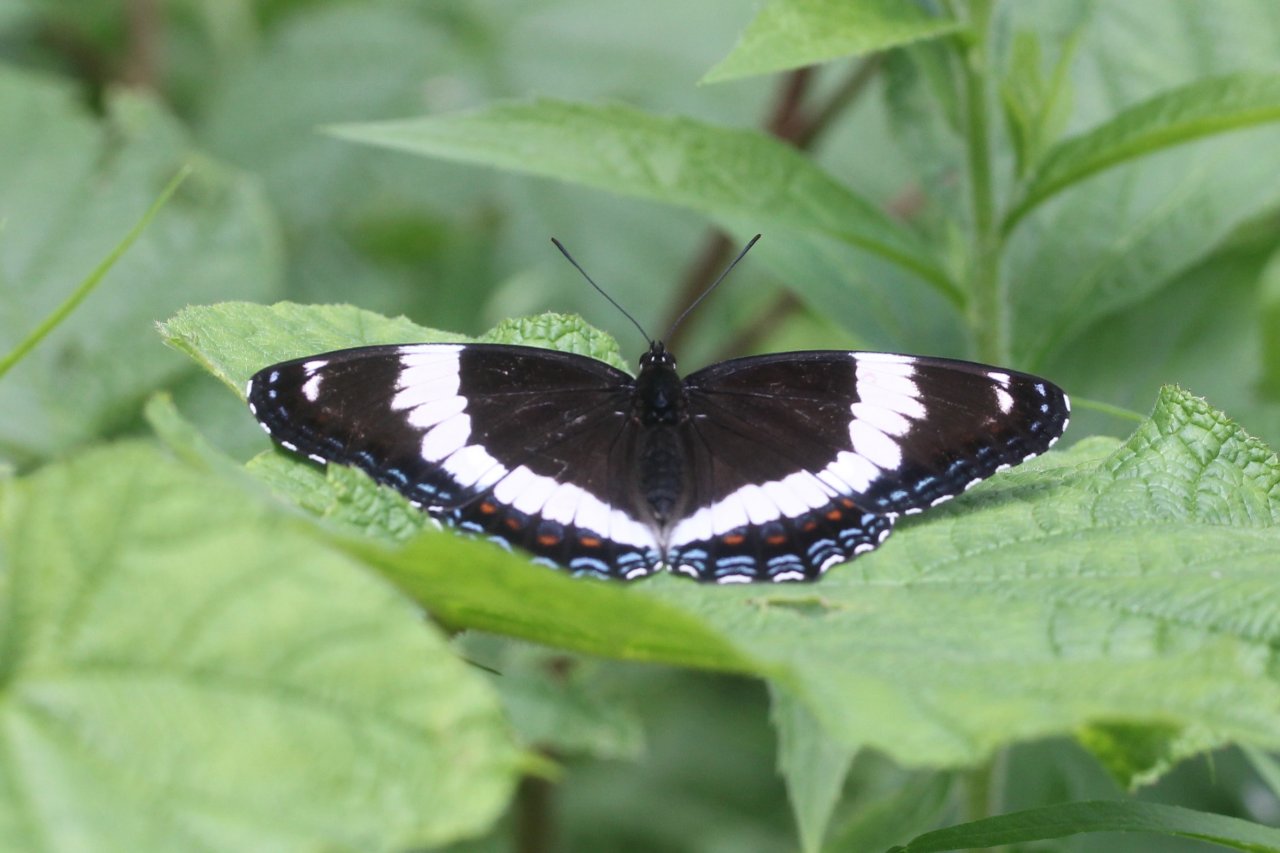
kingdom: Animalia
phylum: Arthropoda
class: Insecta
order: Lepidoptera
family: Nymphalidae
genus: Limenitis
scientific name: Limenitis arthemis
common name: Red-spotted Admiral
